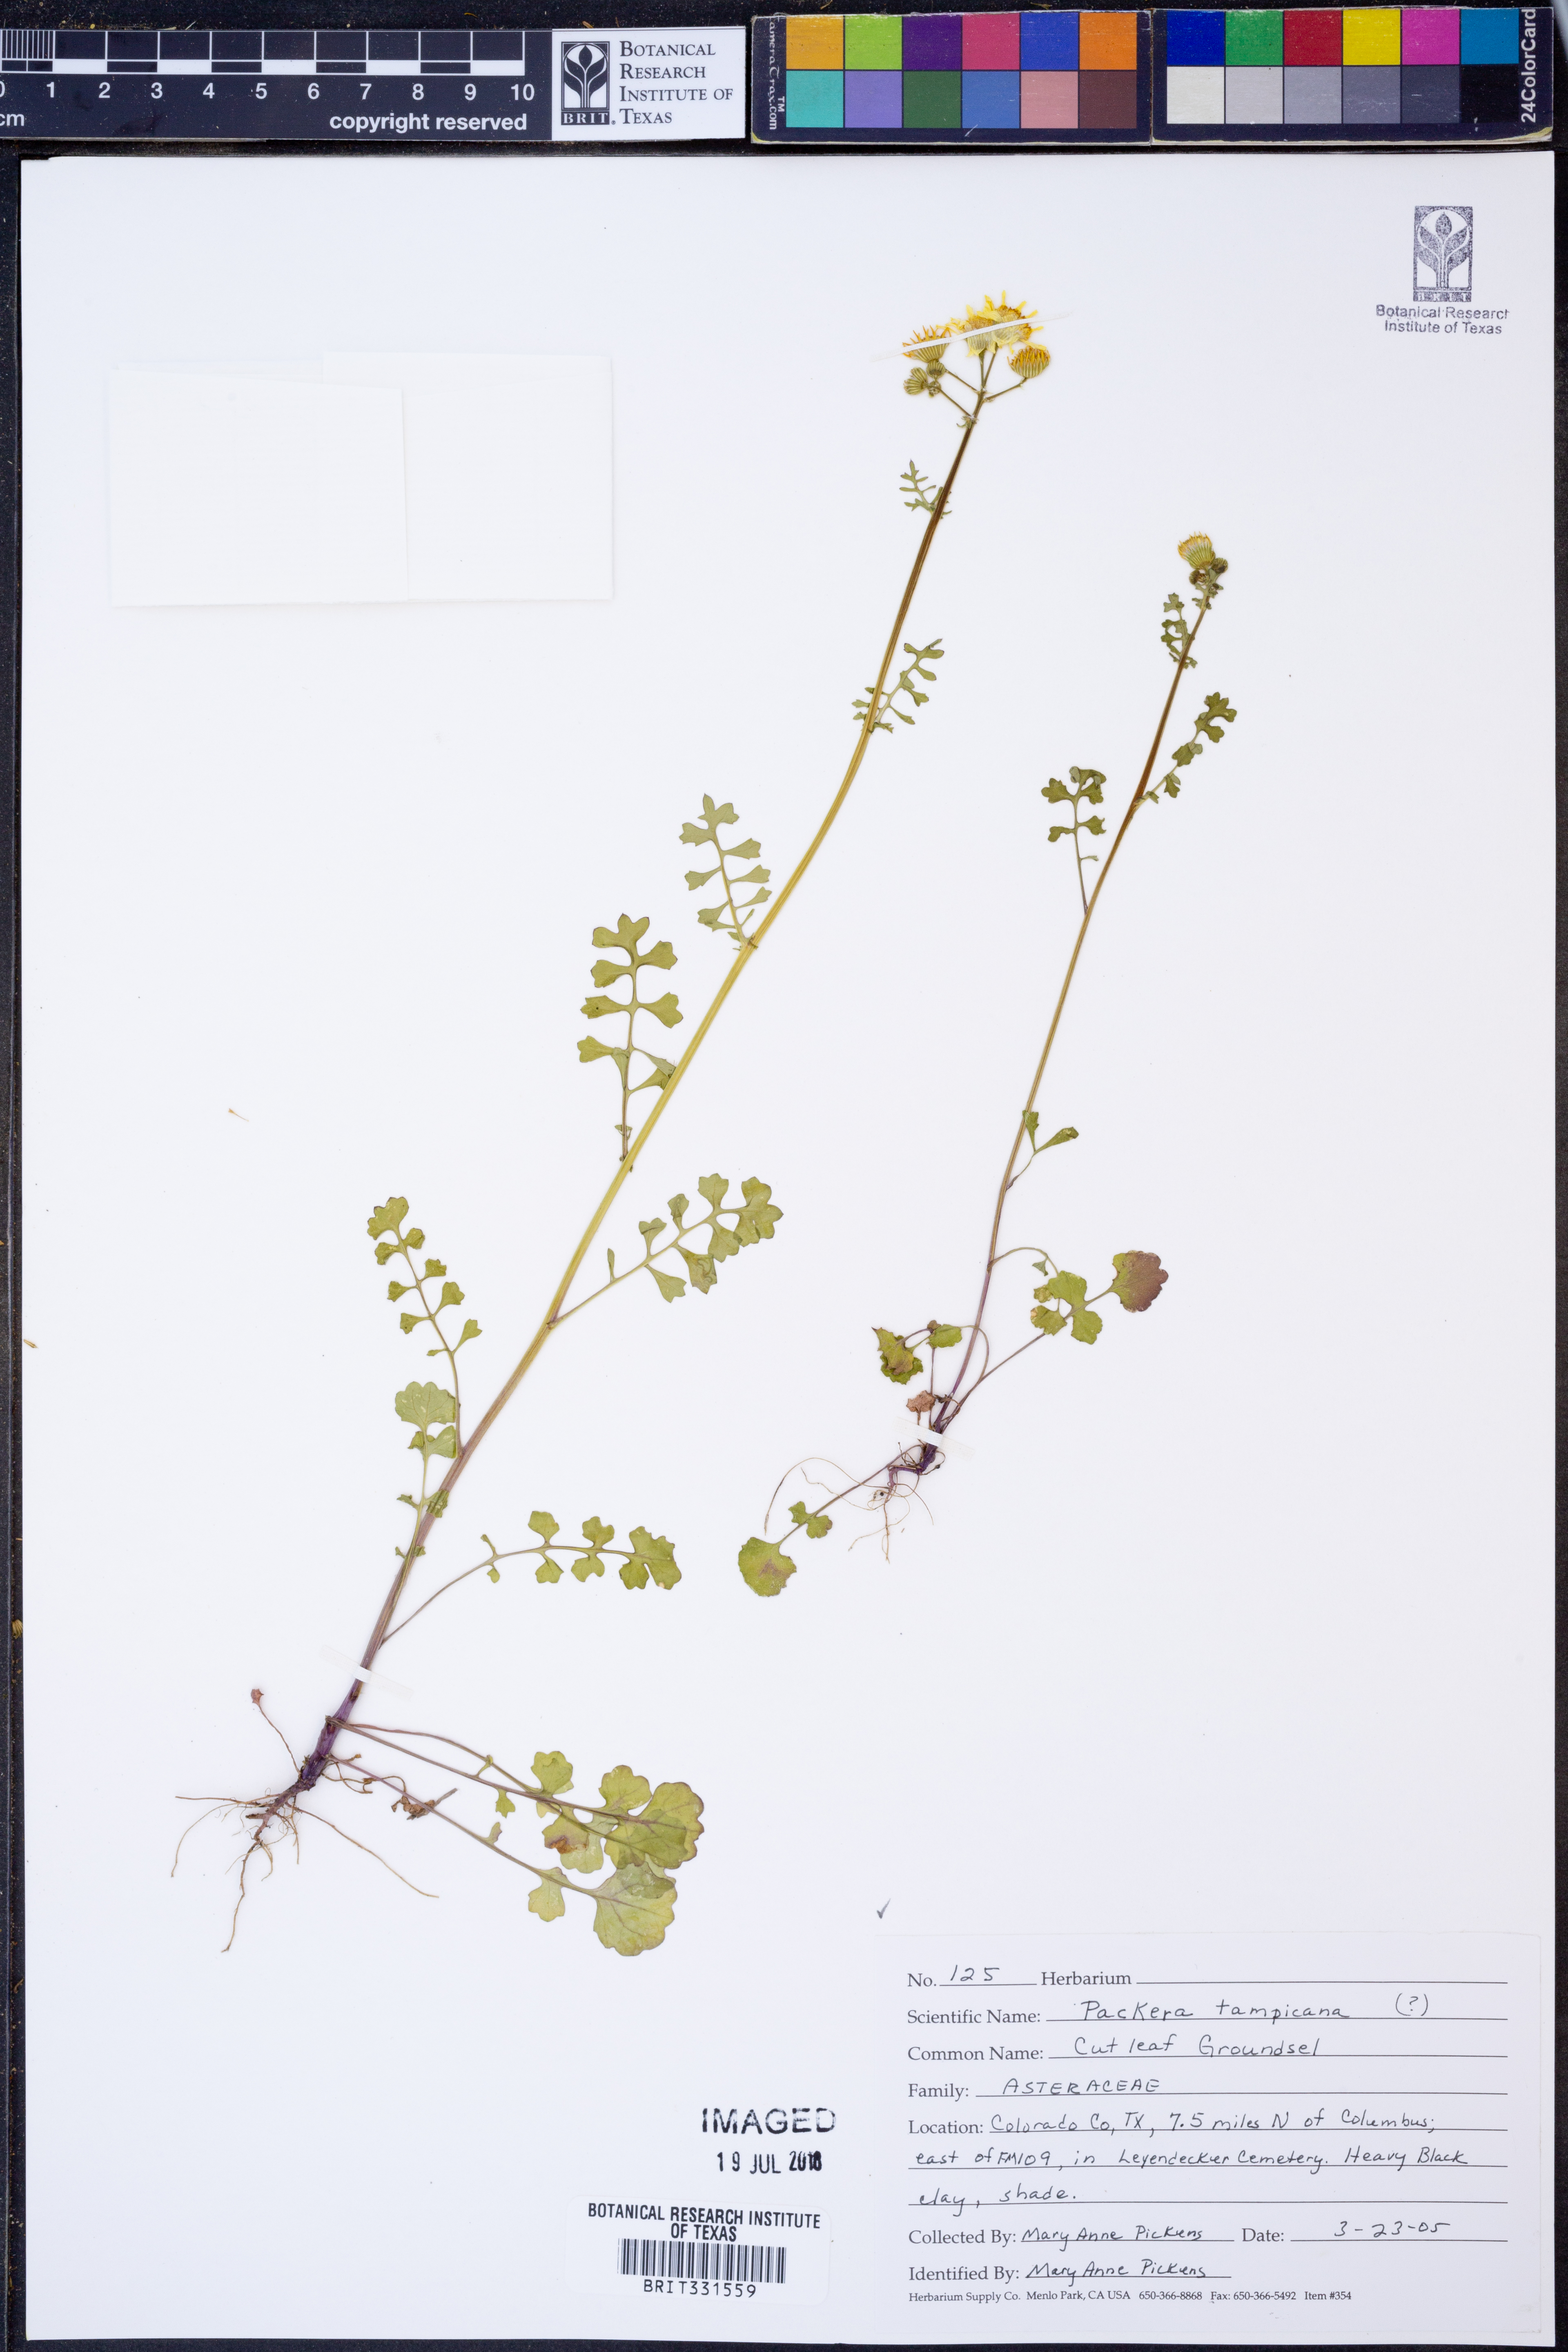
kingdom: Plantae
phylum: Tracheophyta
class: Magnoliopsida
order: Asterales
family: Asteraceae
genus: Packera
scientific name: Packera tampicana
